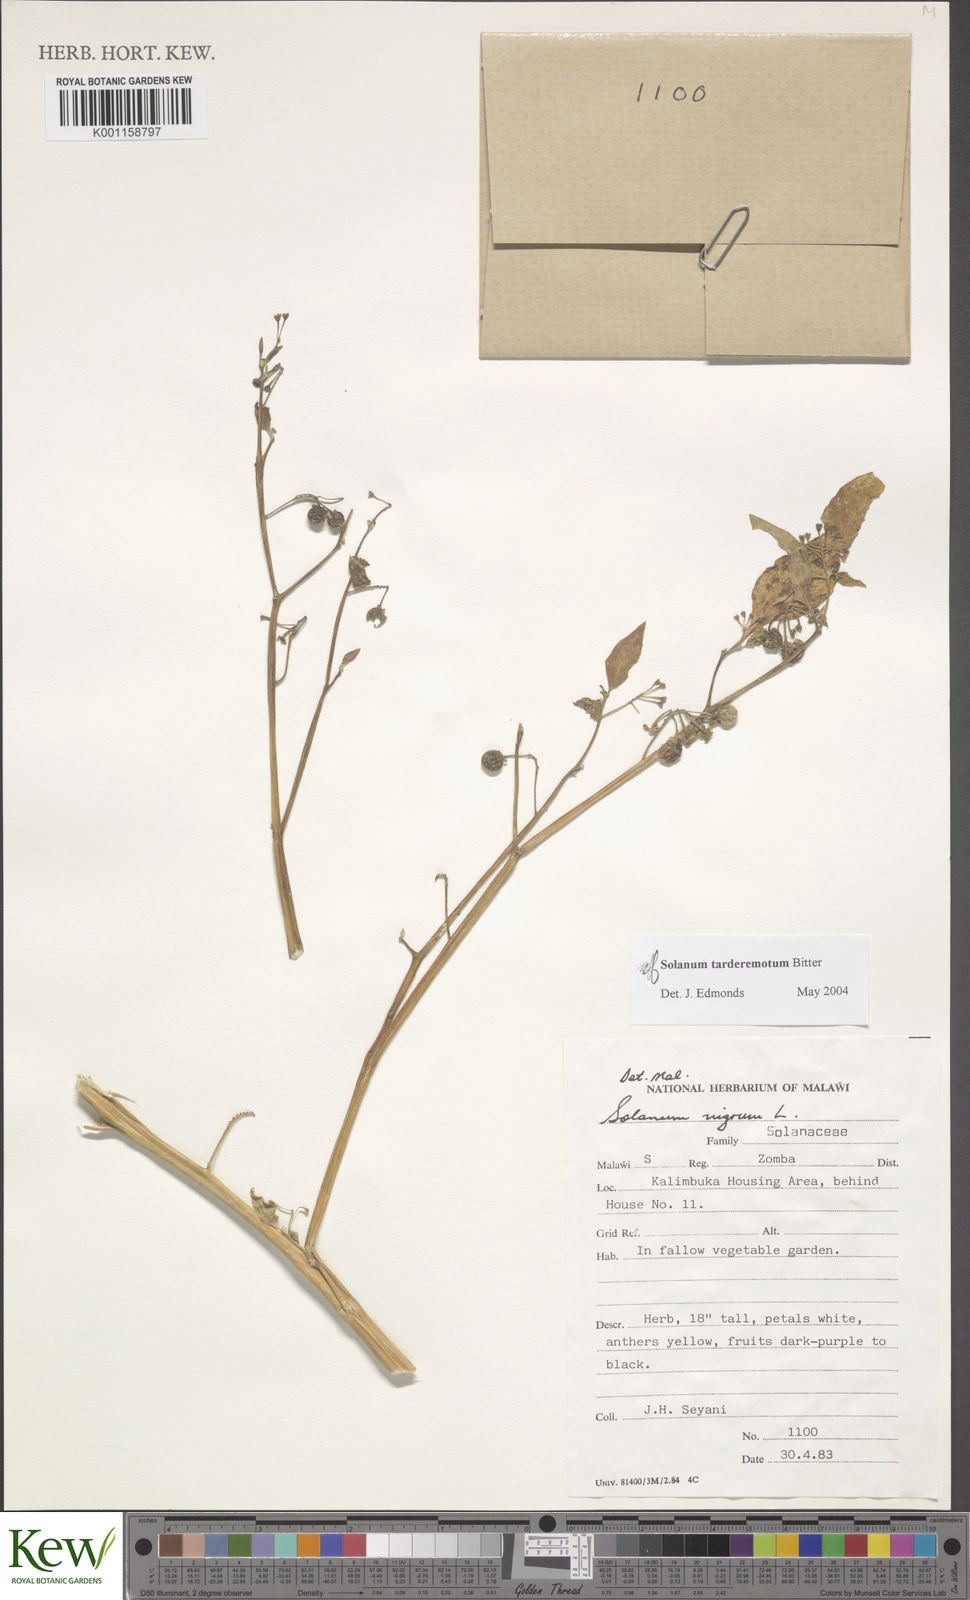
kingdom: Plantae
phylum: Tracheophyta
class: Magnoliopsida
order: Solanales
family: Solanaceae
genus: Solanum
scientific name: Solanum tarderemotum
